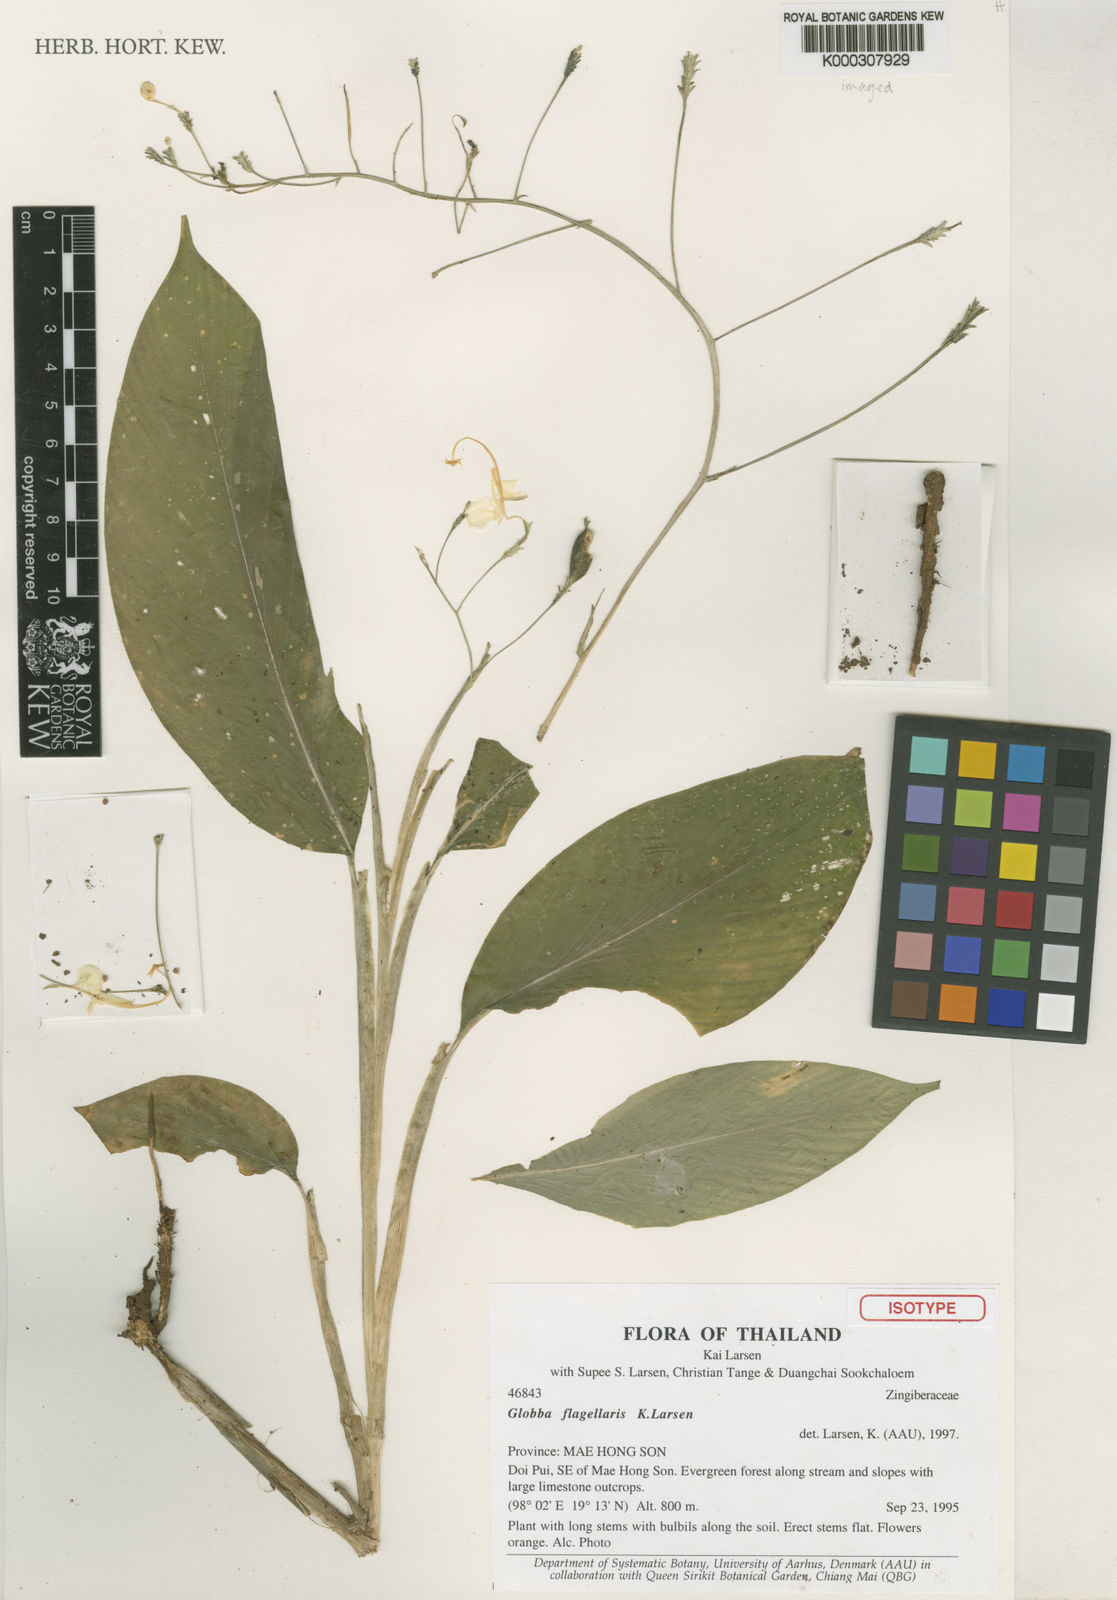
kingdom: Plantae
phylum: Tracheophyta
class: Liliopsida
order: Zingiberales
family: Zingiberaceae
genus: Globba
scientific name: Globba flagellaris
